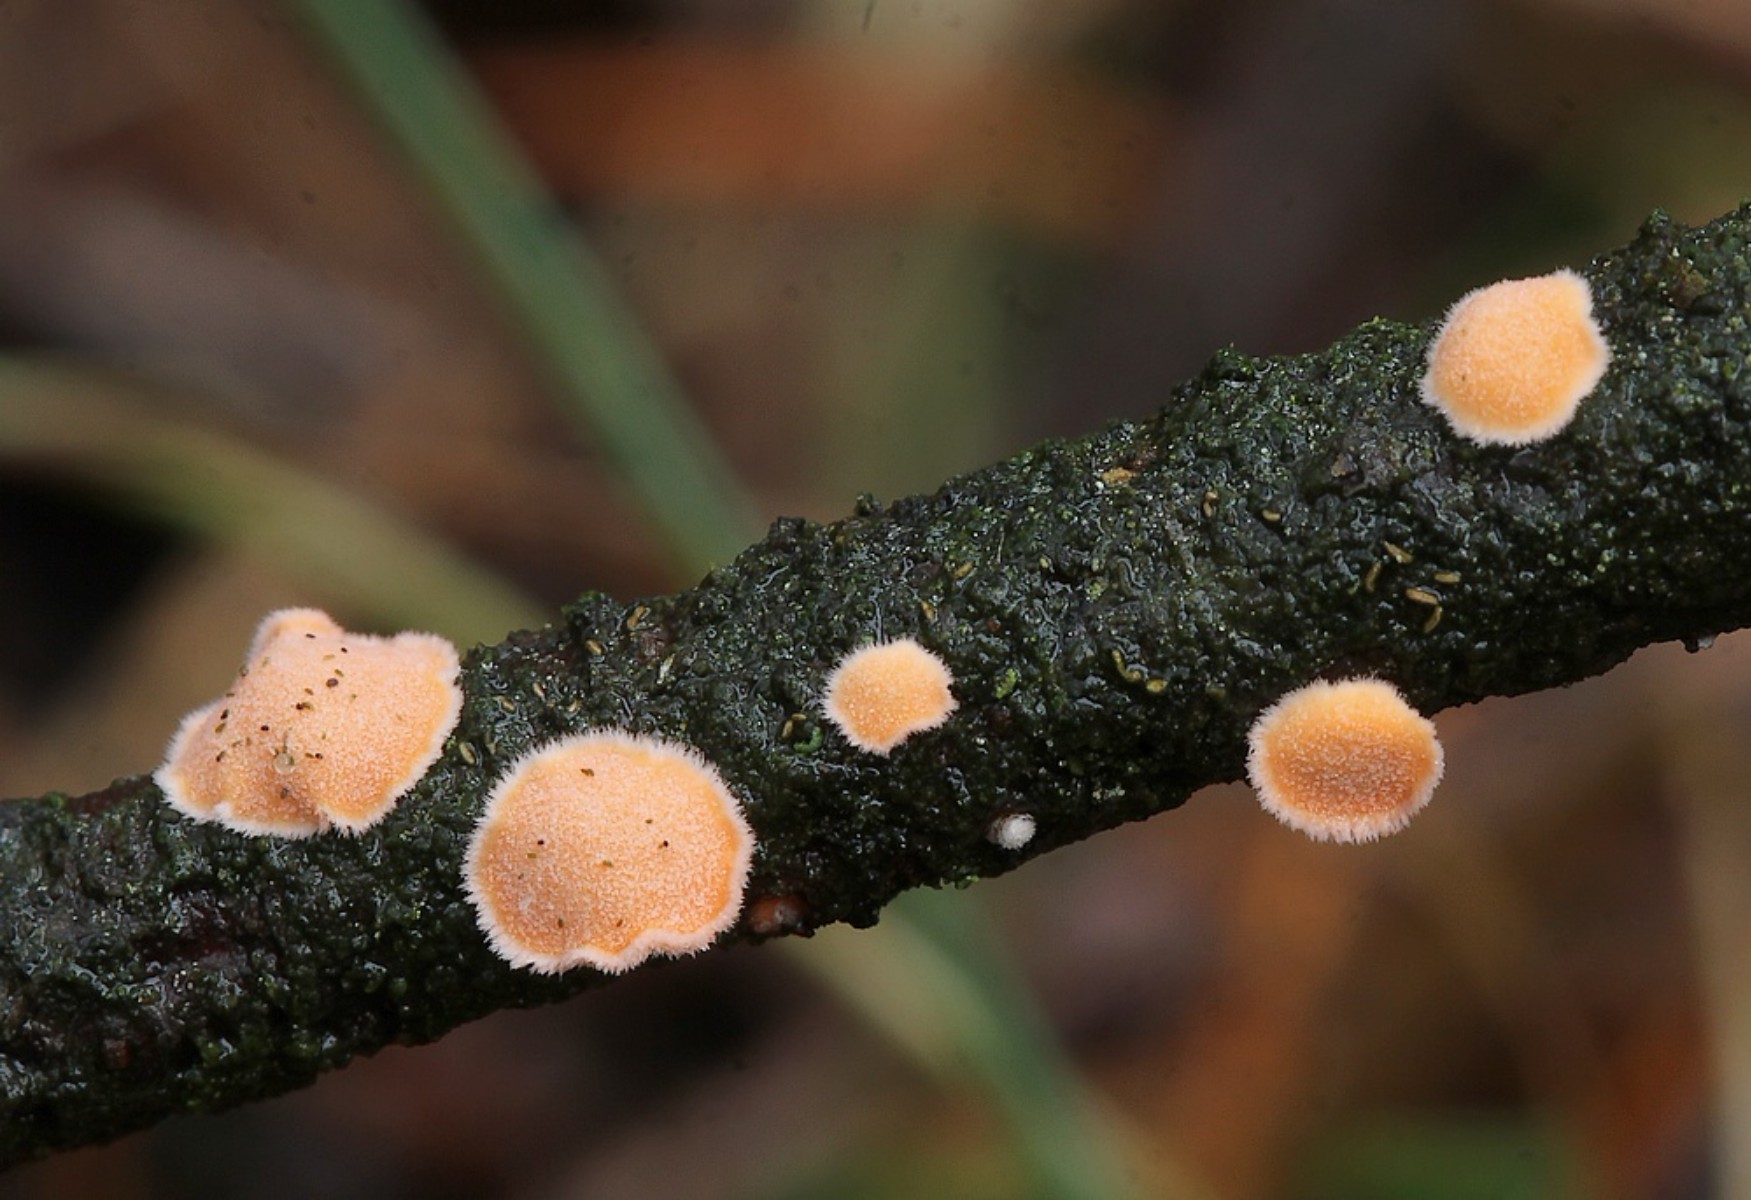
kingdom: Fungi
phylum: Basidiomycota
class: Agaricomycetes
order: Russulales
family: Stereaceae
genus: Aleurodiscus
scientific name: Aleurodiscus amorphus
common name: orange skiveskorpe
